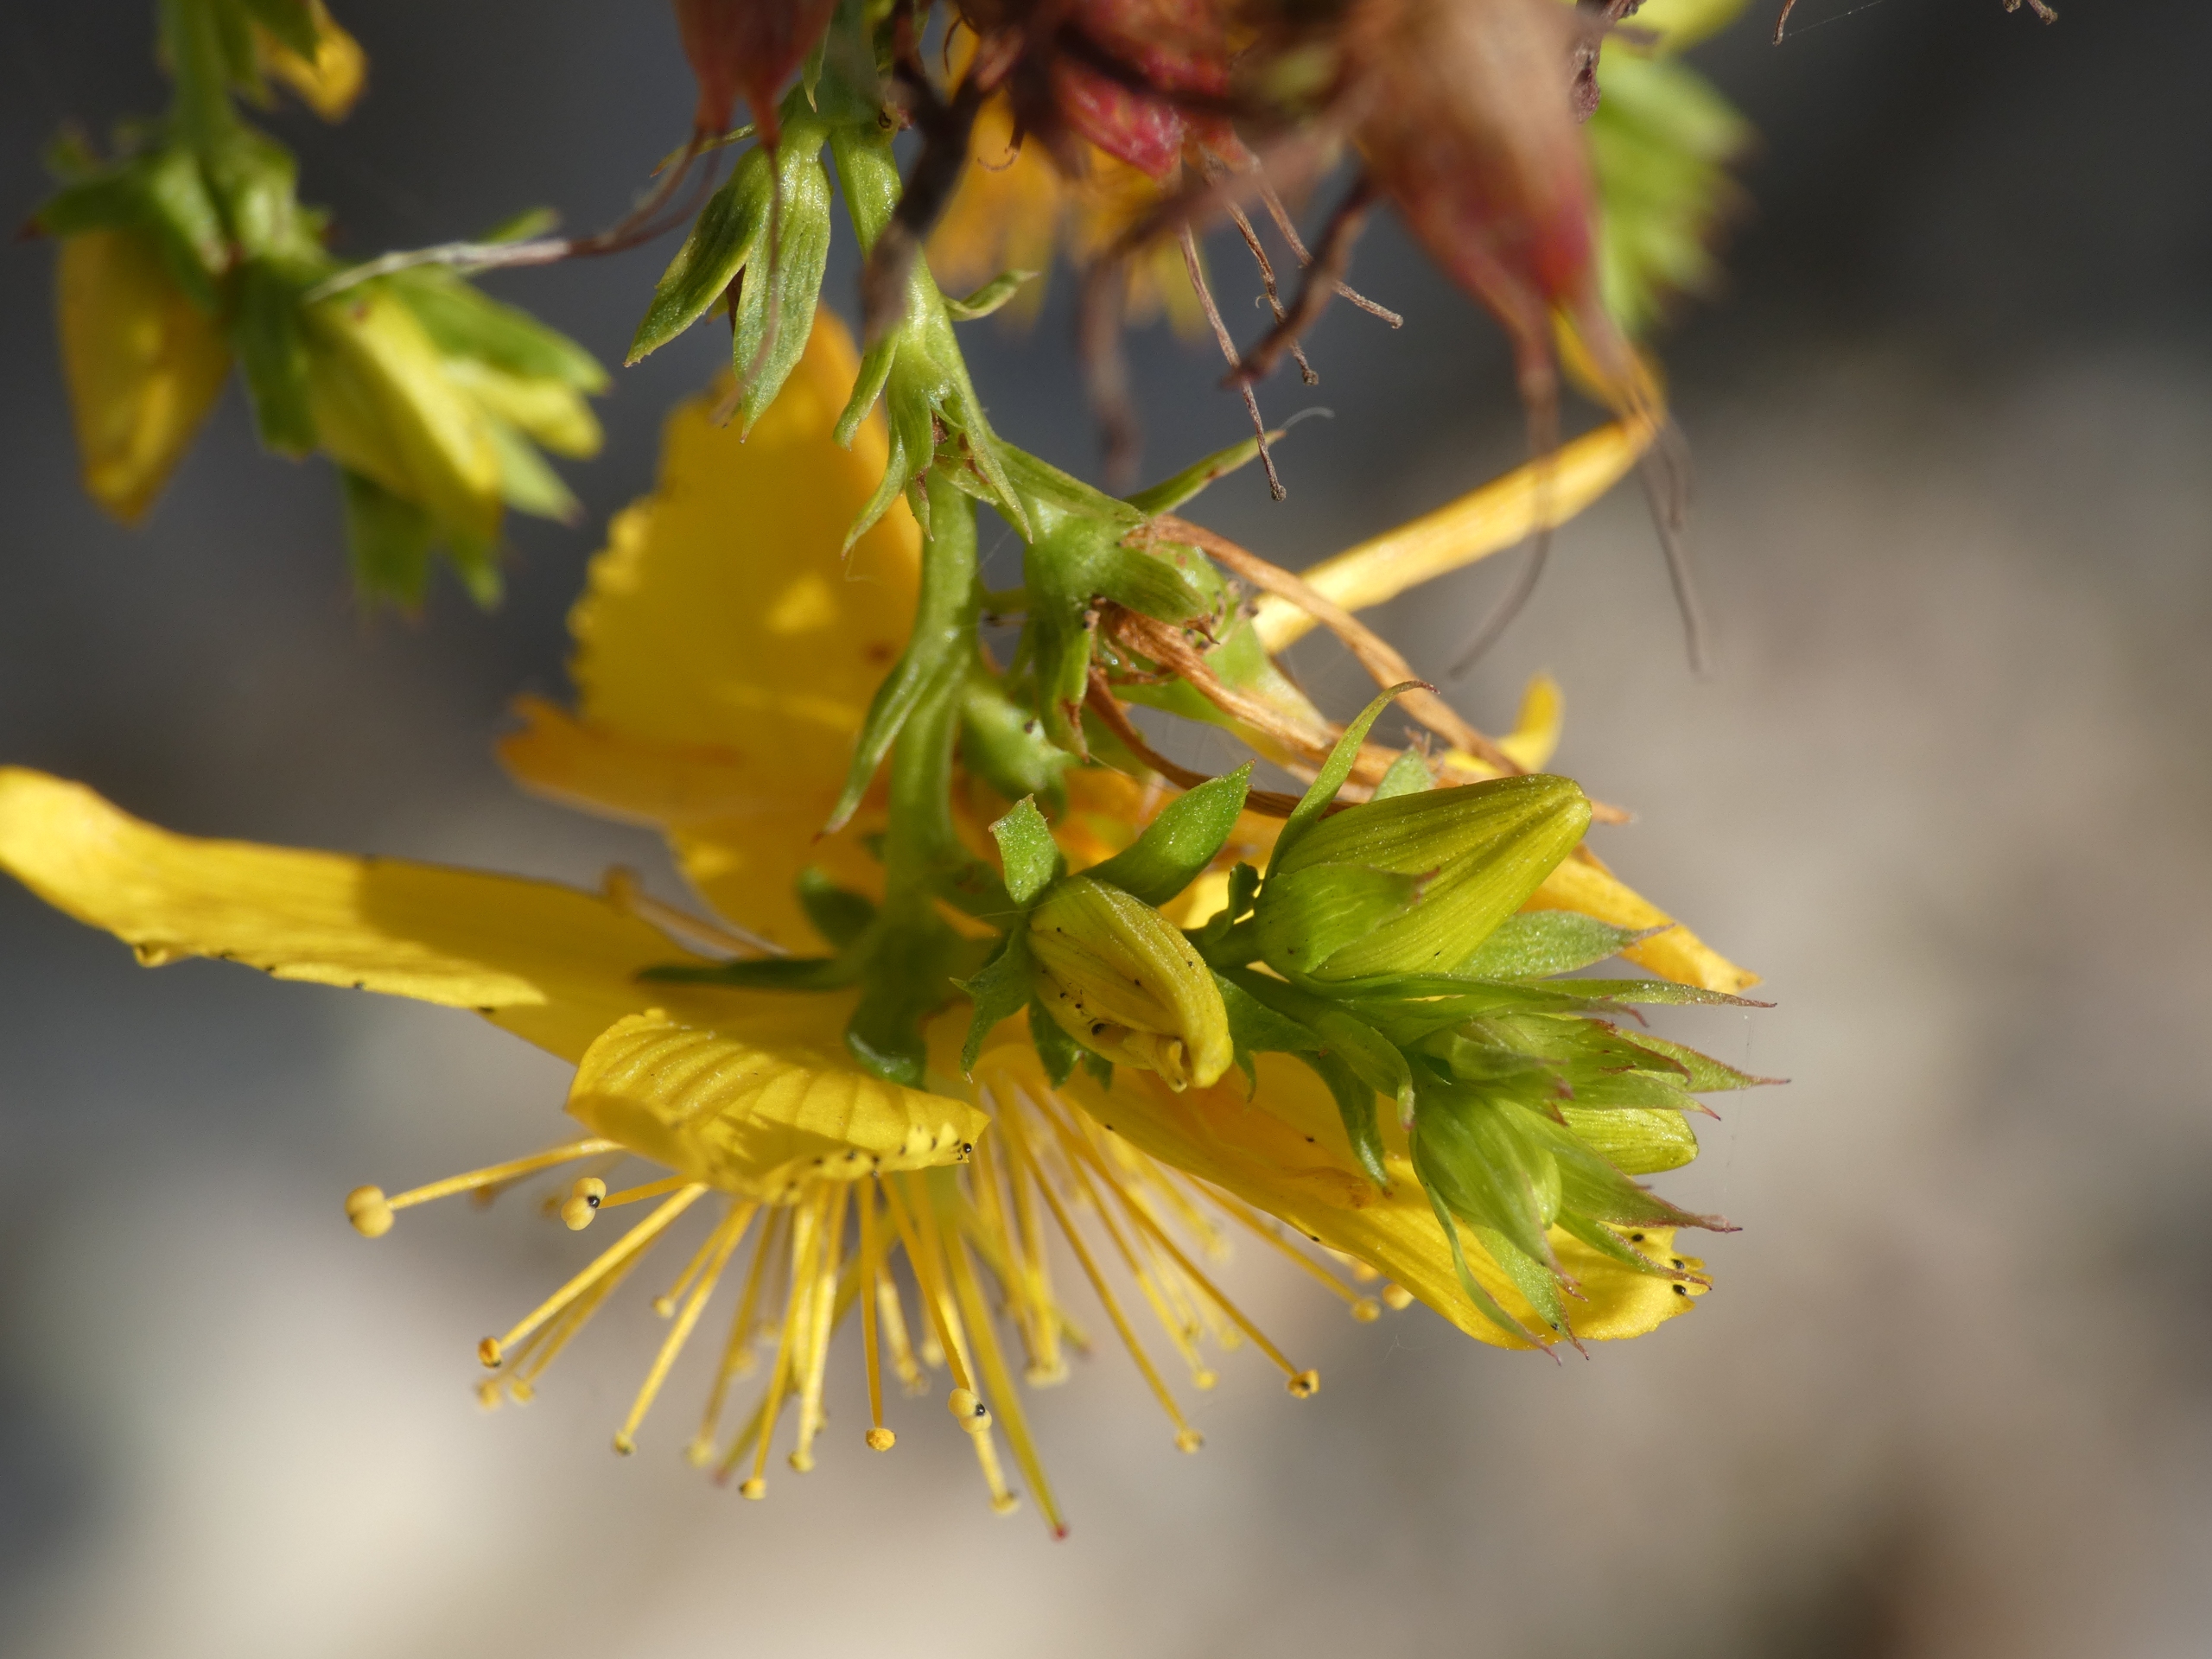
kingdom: Plantae
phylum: Tracheophyta
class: Magnoliopsida
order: Malpighiales
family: Hypericaceae
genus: Hypericum
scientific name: Hypericum perforatum
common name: Prikbladet perikon
